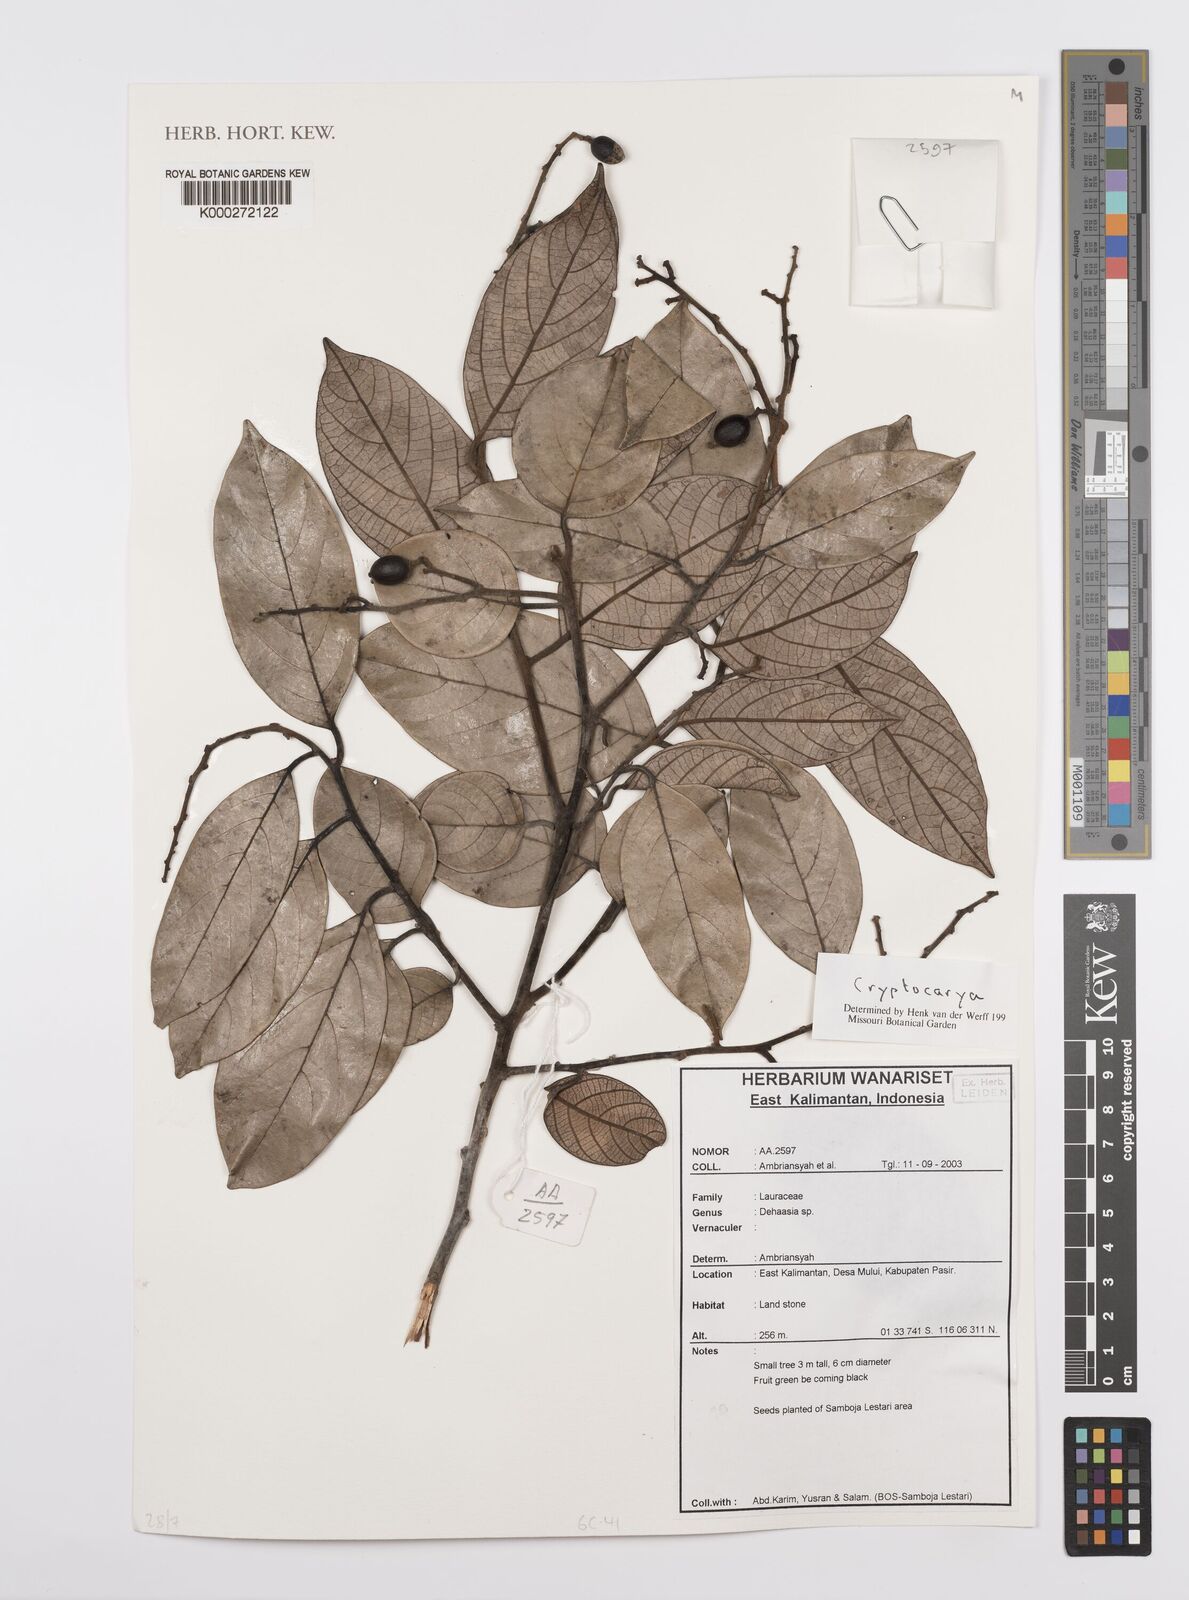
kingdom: Plantae
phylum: Tracheophyta
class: Magnoliopsida
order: Laurales
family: Lauraceae
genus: Cryptocarya
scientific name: Cryptocarya
